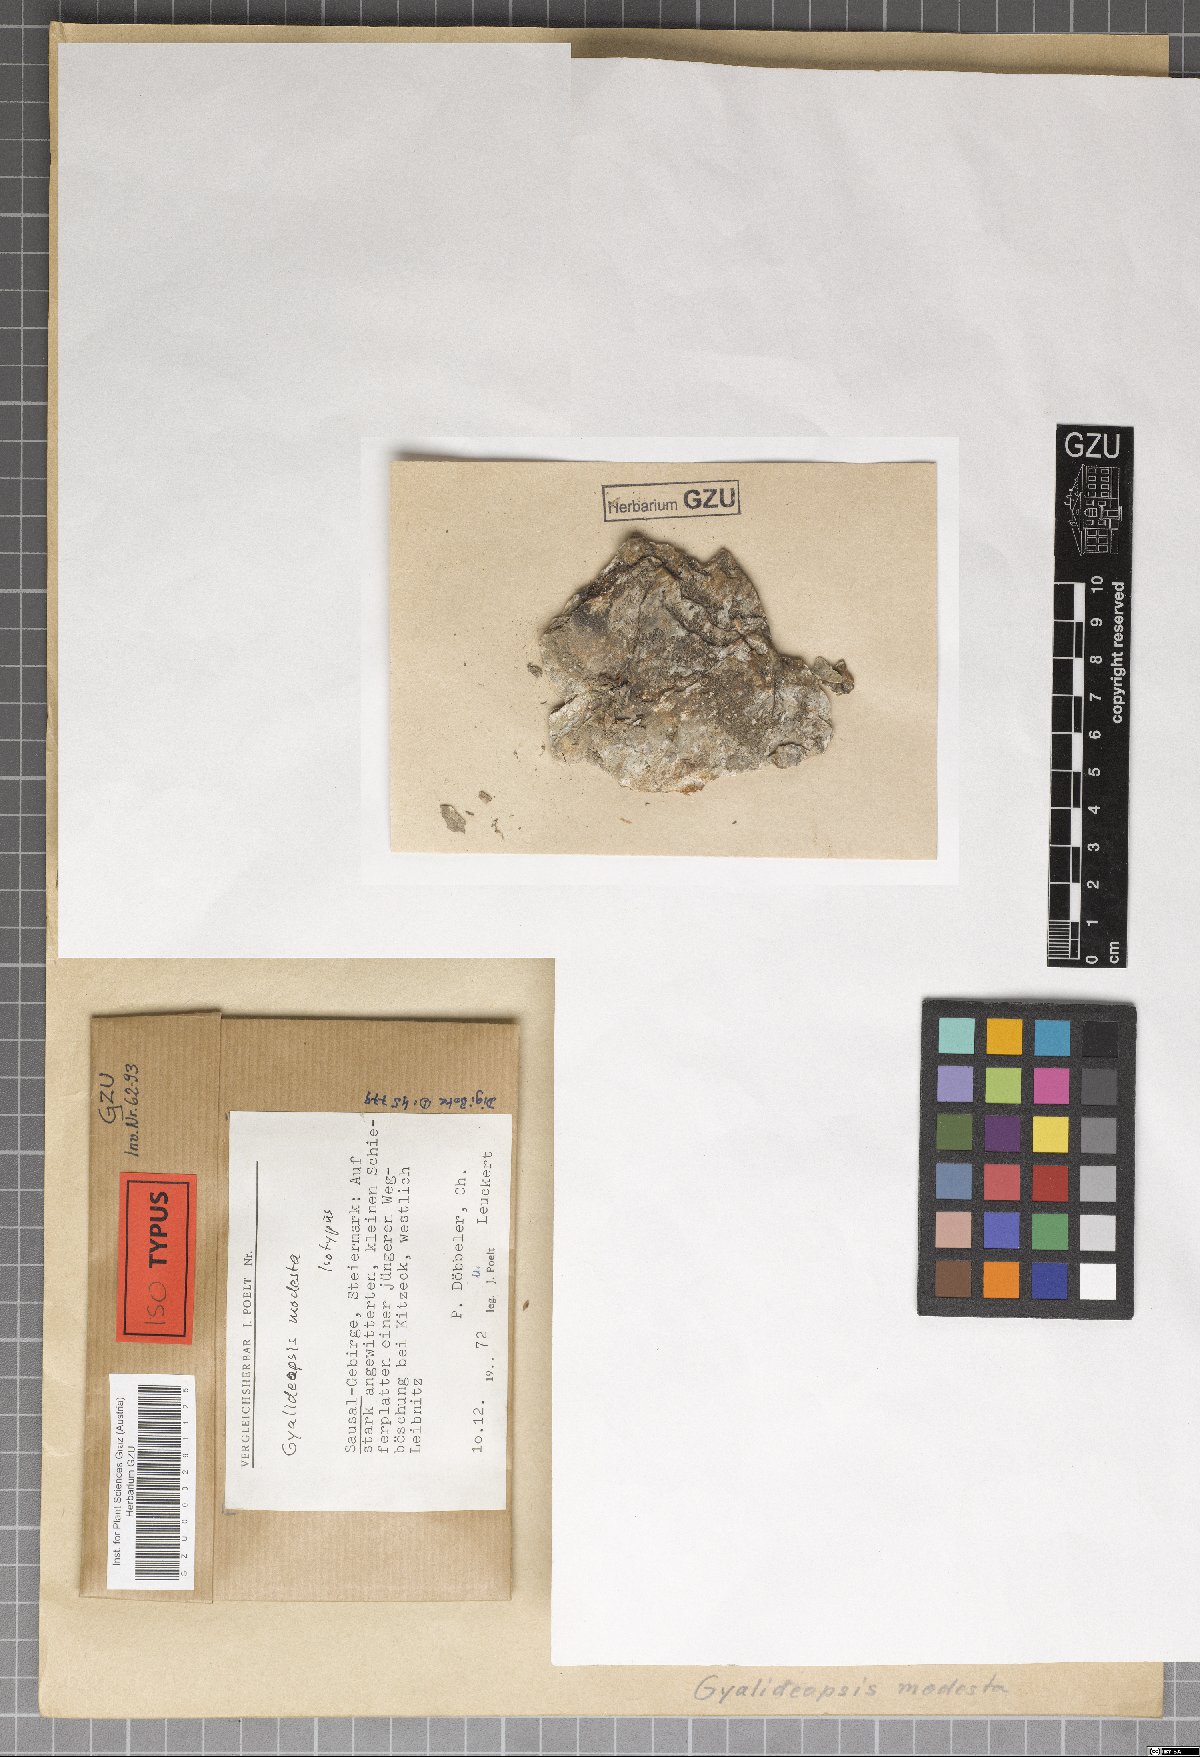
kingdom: Fungi
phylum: Ascomycota
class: Lecanoromycetes
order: Ostropales
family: Gomphillaceae
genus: Gyalideopsis
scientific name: Gyalideopsis
